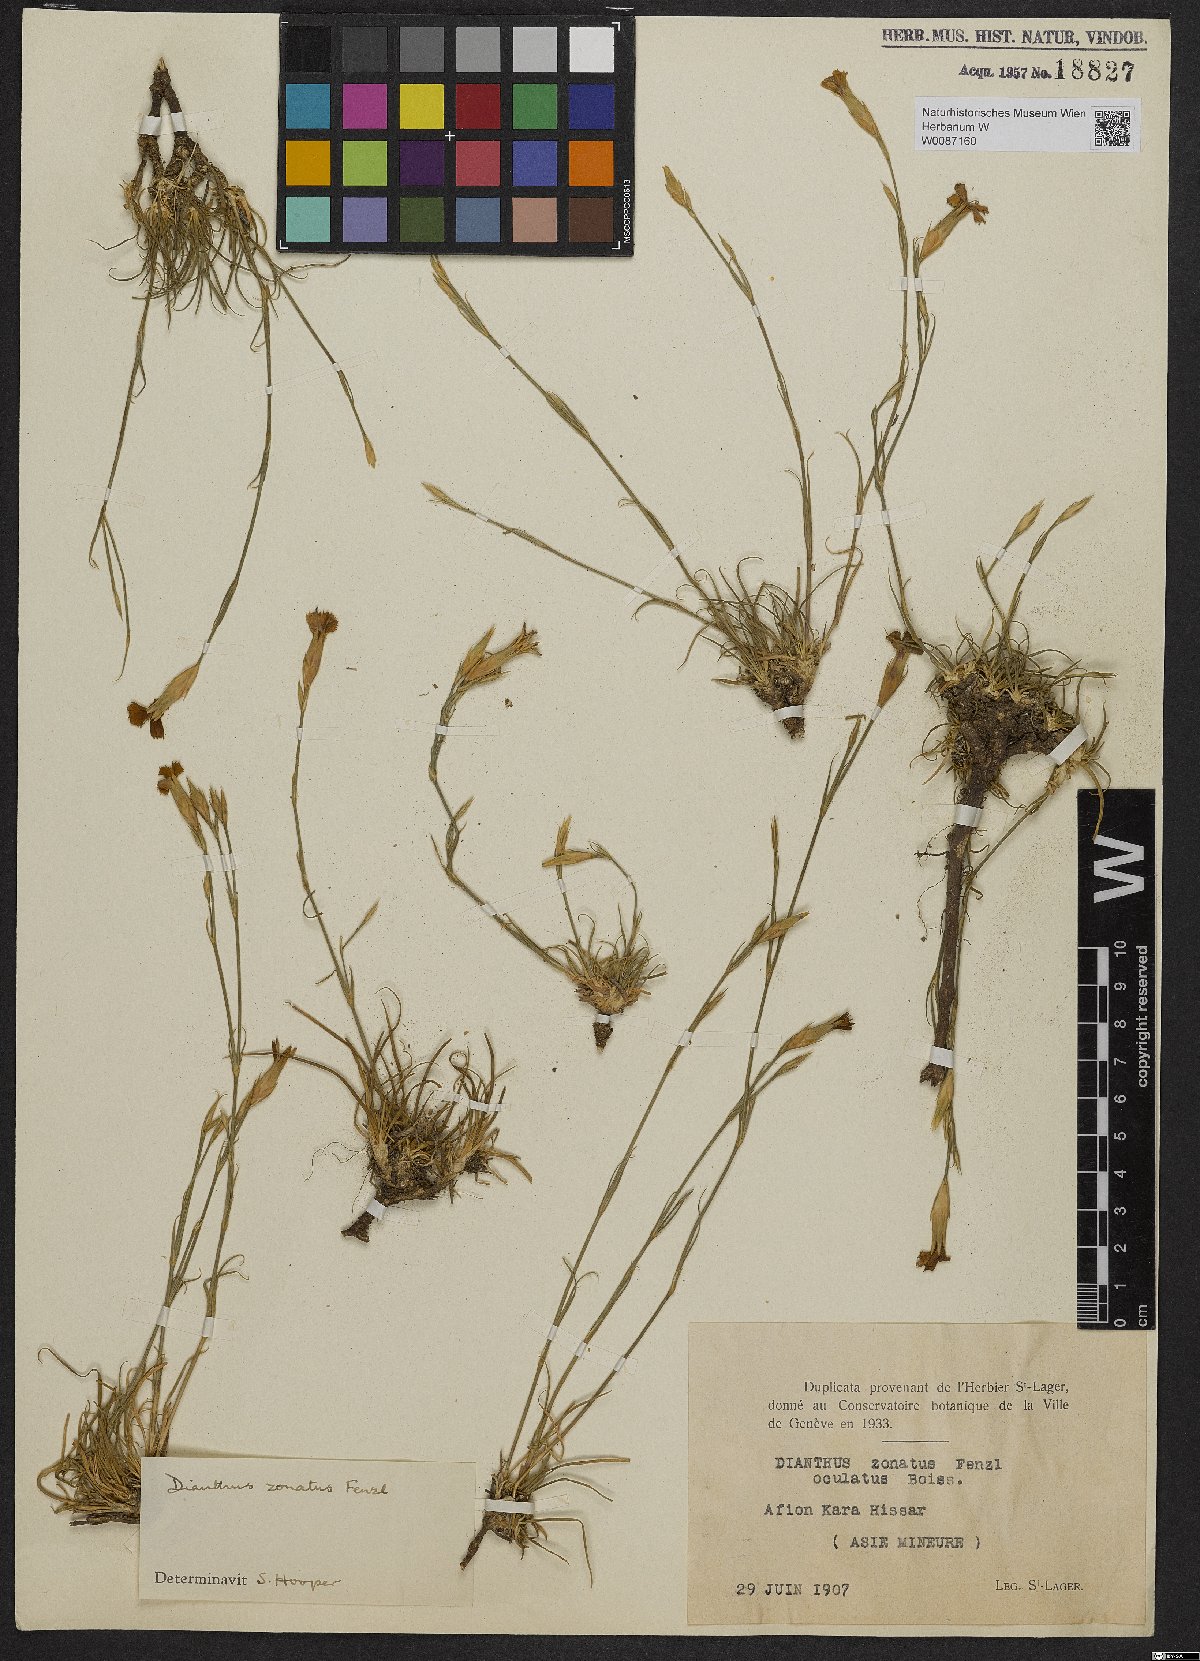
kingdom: Plantae
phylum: Tracheophyta
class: Magnoliopsida
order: Caryophyllales
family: Caryophyllaceae
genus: Dianthus
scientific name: Dianthus zonatus
